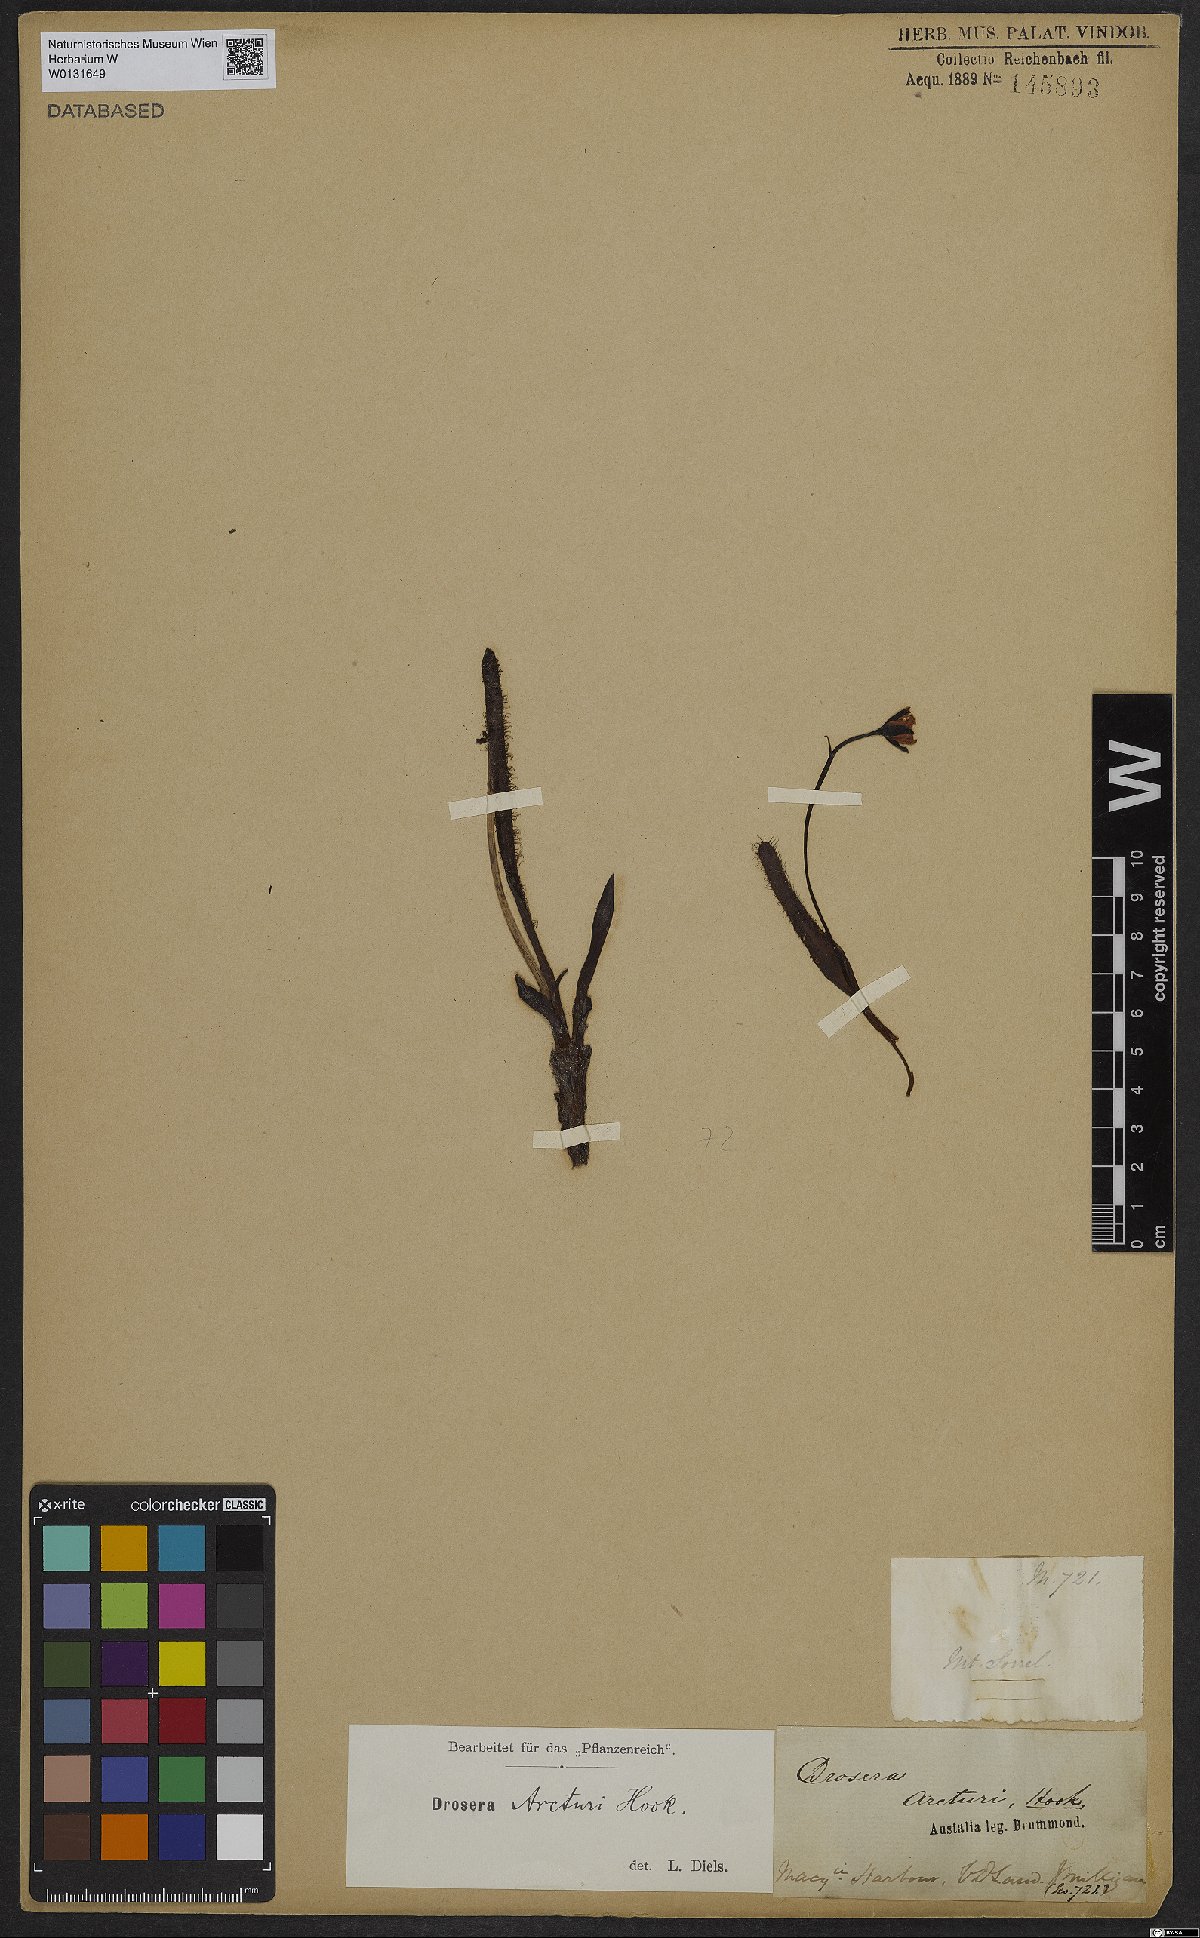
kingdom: Plantae
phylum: Tracheophyta
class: Magnoliopsida
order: Caryophyllales
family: Droseraceae
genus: Drosera
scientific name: Drosera arcturi
